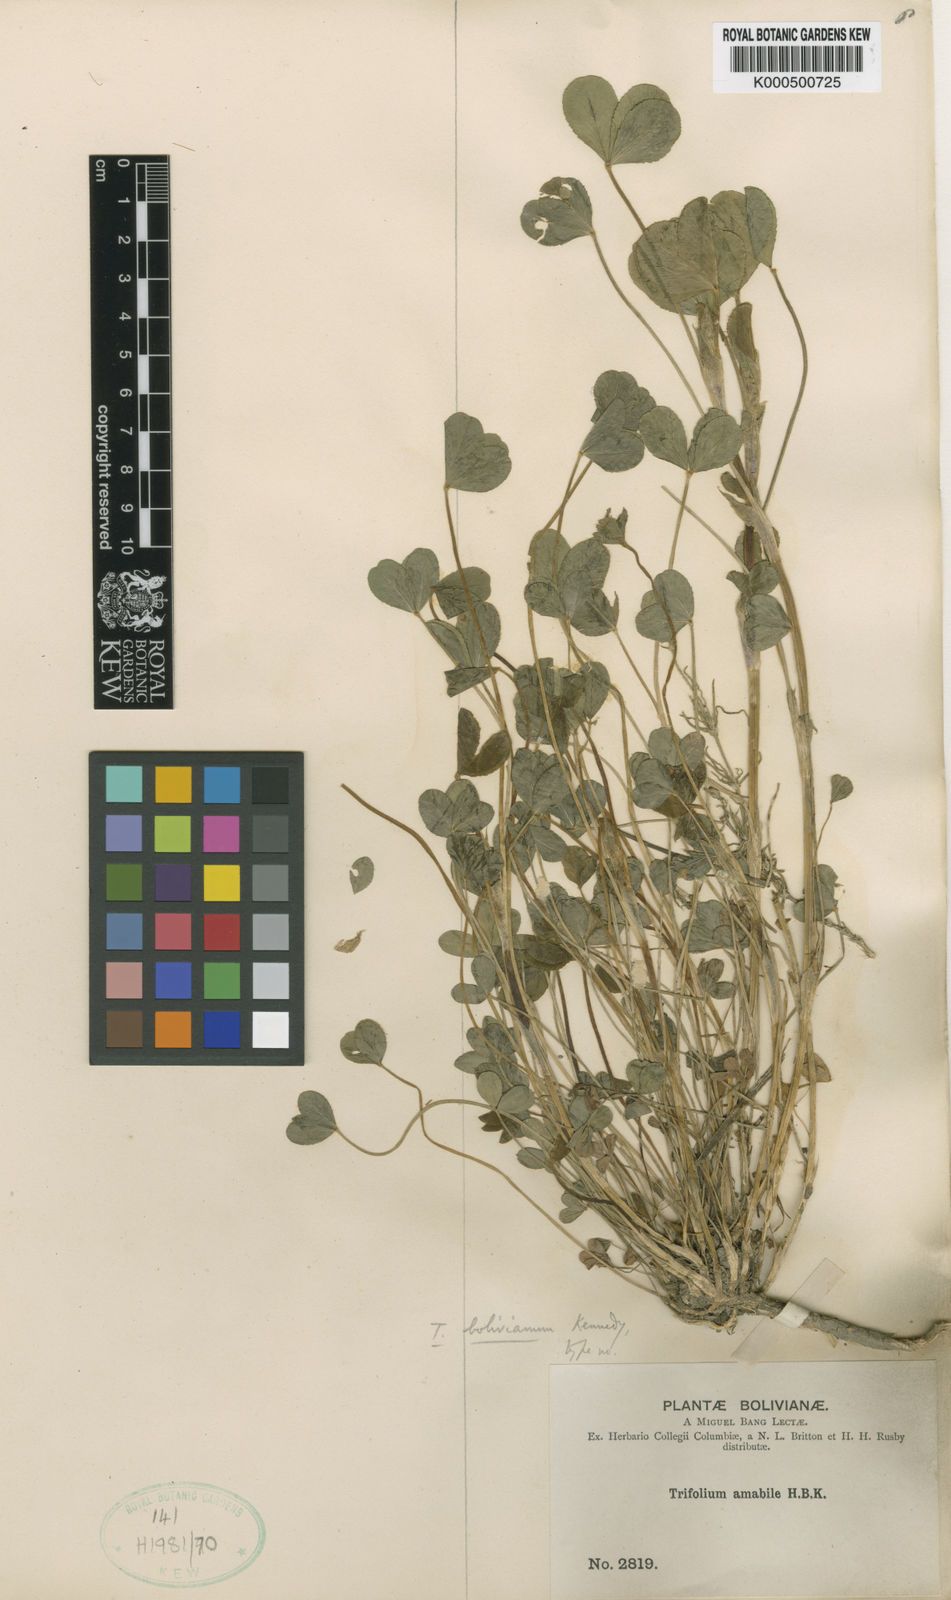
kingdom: Plantae
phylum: Tracheophyta
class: Magnoliopsida
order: Fabales
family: Fabaceae
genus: Trifolium
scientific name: Trifolium amabile
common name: Aztec clover
